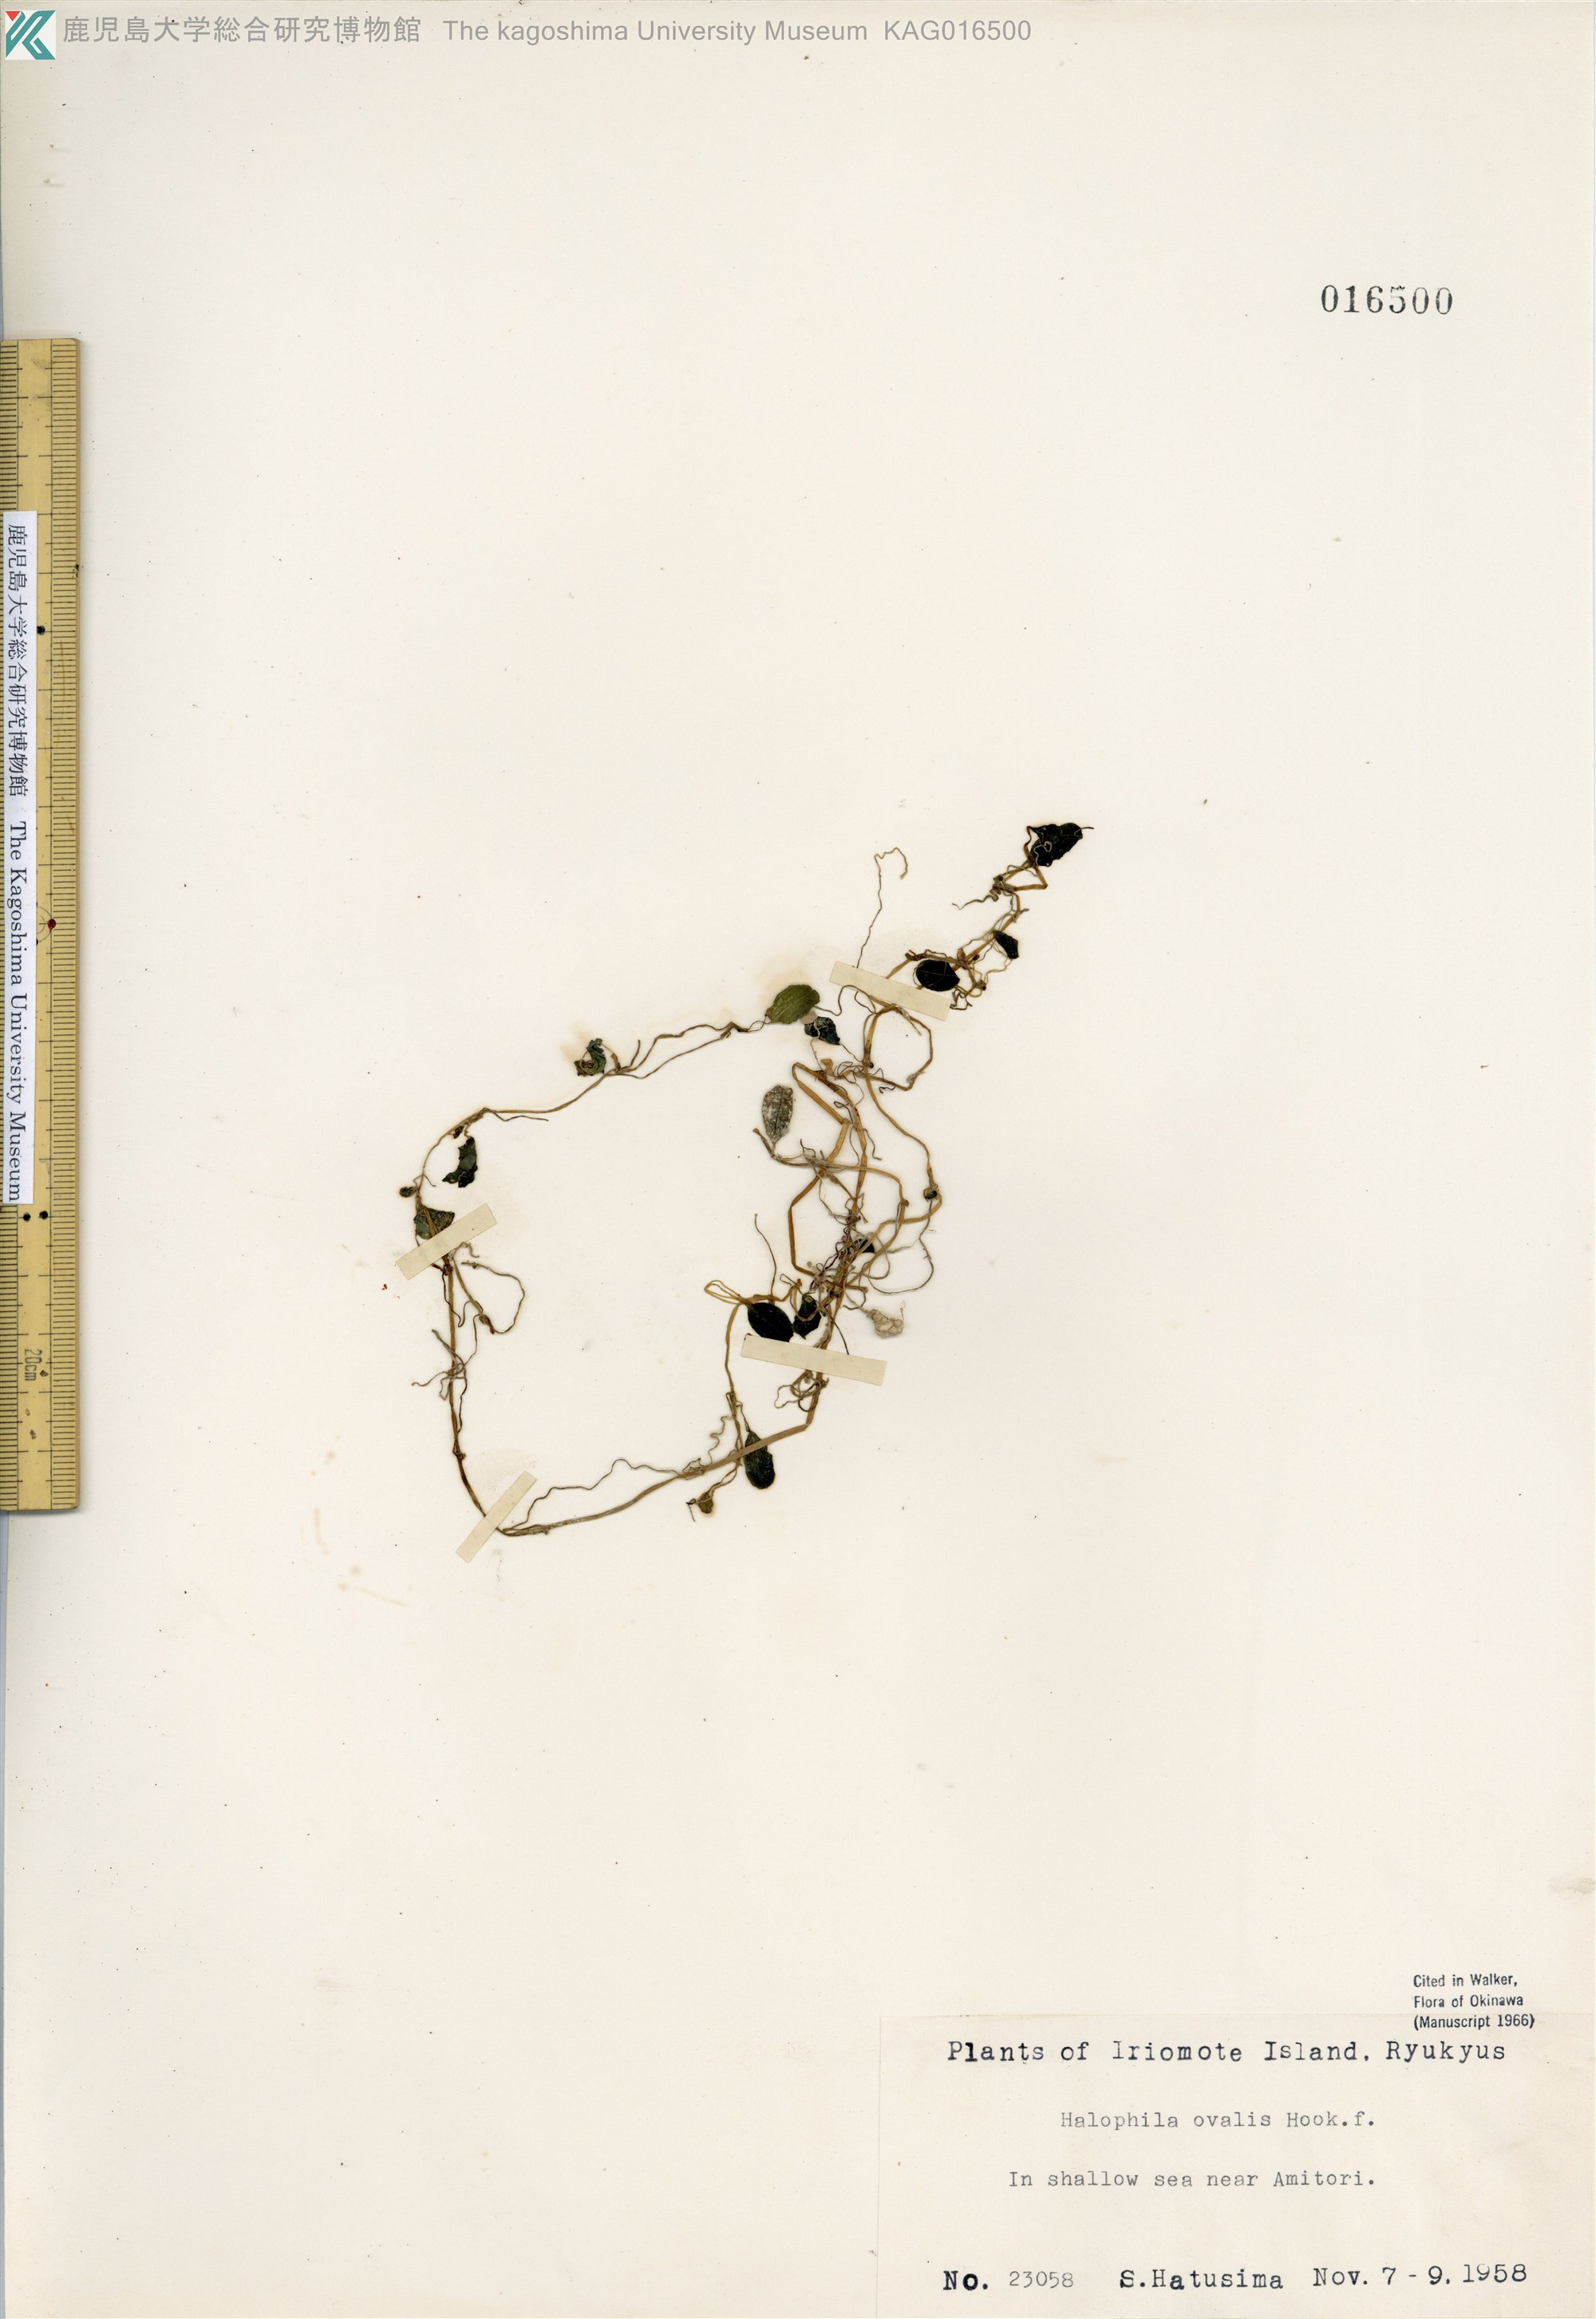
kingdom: Plantae
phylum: Tracheophyta
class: Liliopsida
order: Alismatales
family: Hydrocharitaceae
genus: Halophila
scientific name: Halophila ovalis
